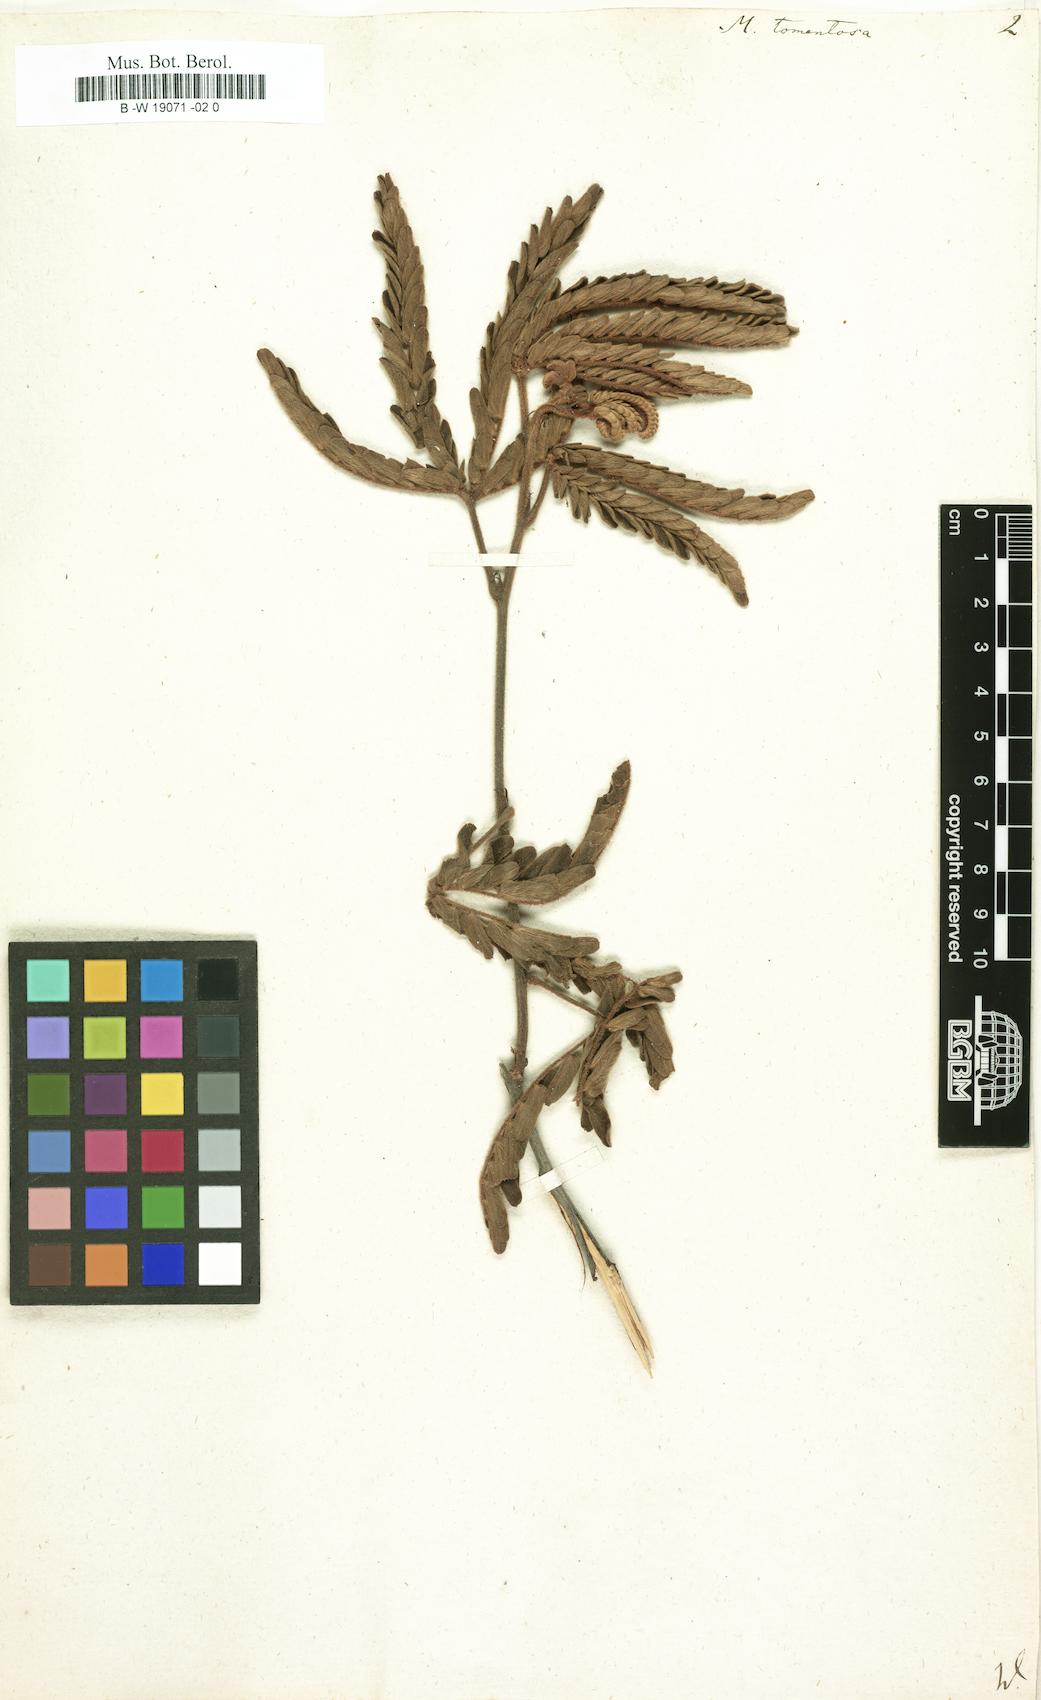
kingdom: Plantae
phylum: Tracheophyta
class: Magnoliopsida
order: Fabales
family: Fabaceae
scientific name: Fabaceae
